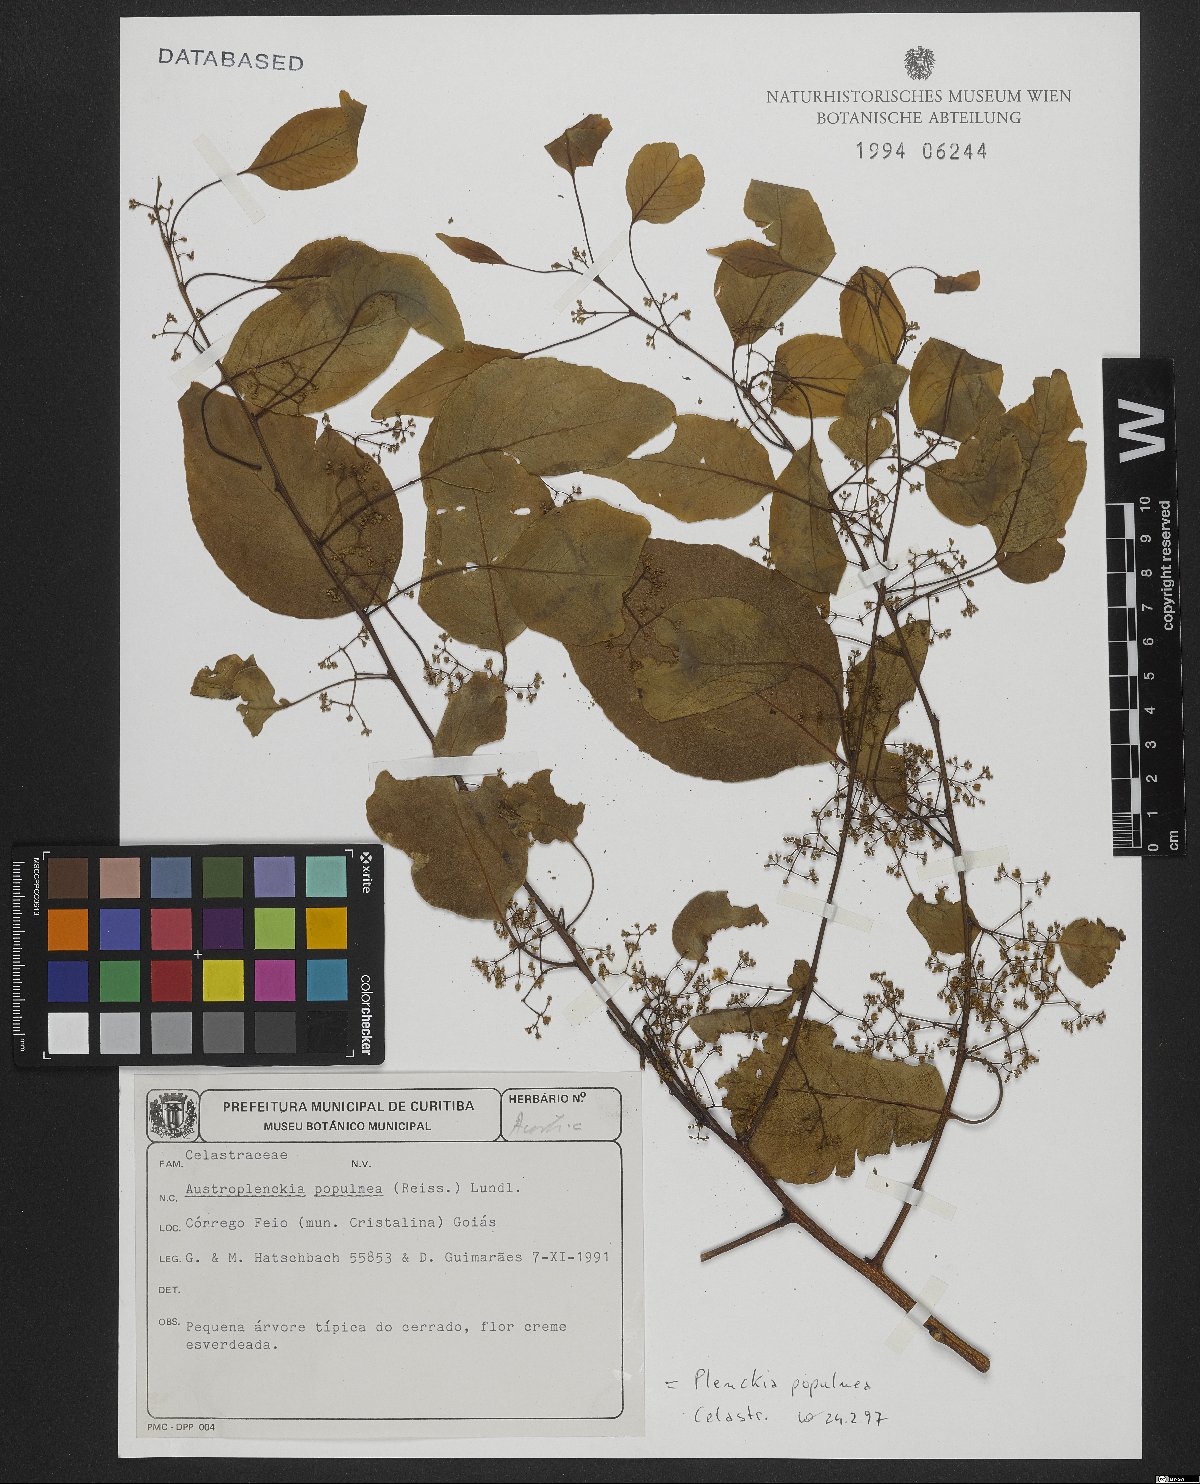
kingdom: Plantae
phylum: Tracheophyta
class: Magnoliopsida
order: Celastrales
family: Celastraceae
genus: Plenckia
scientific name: Plenckia populnea
